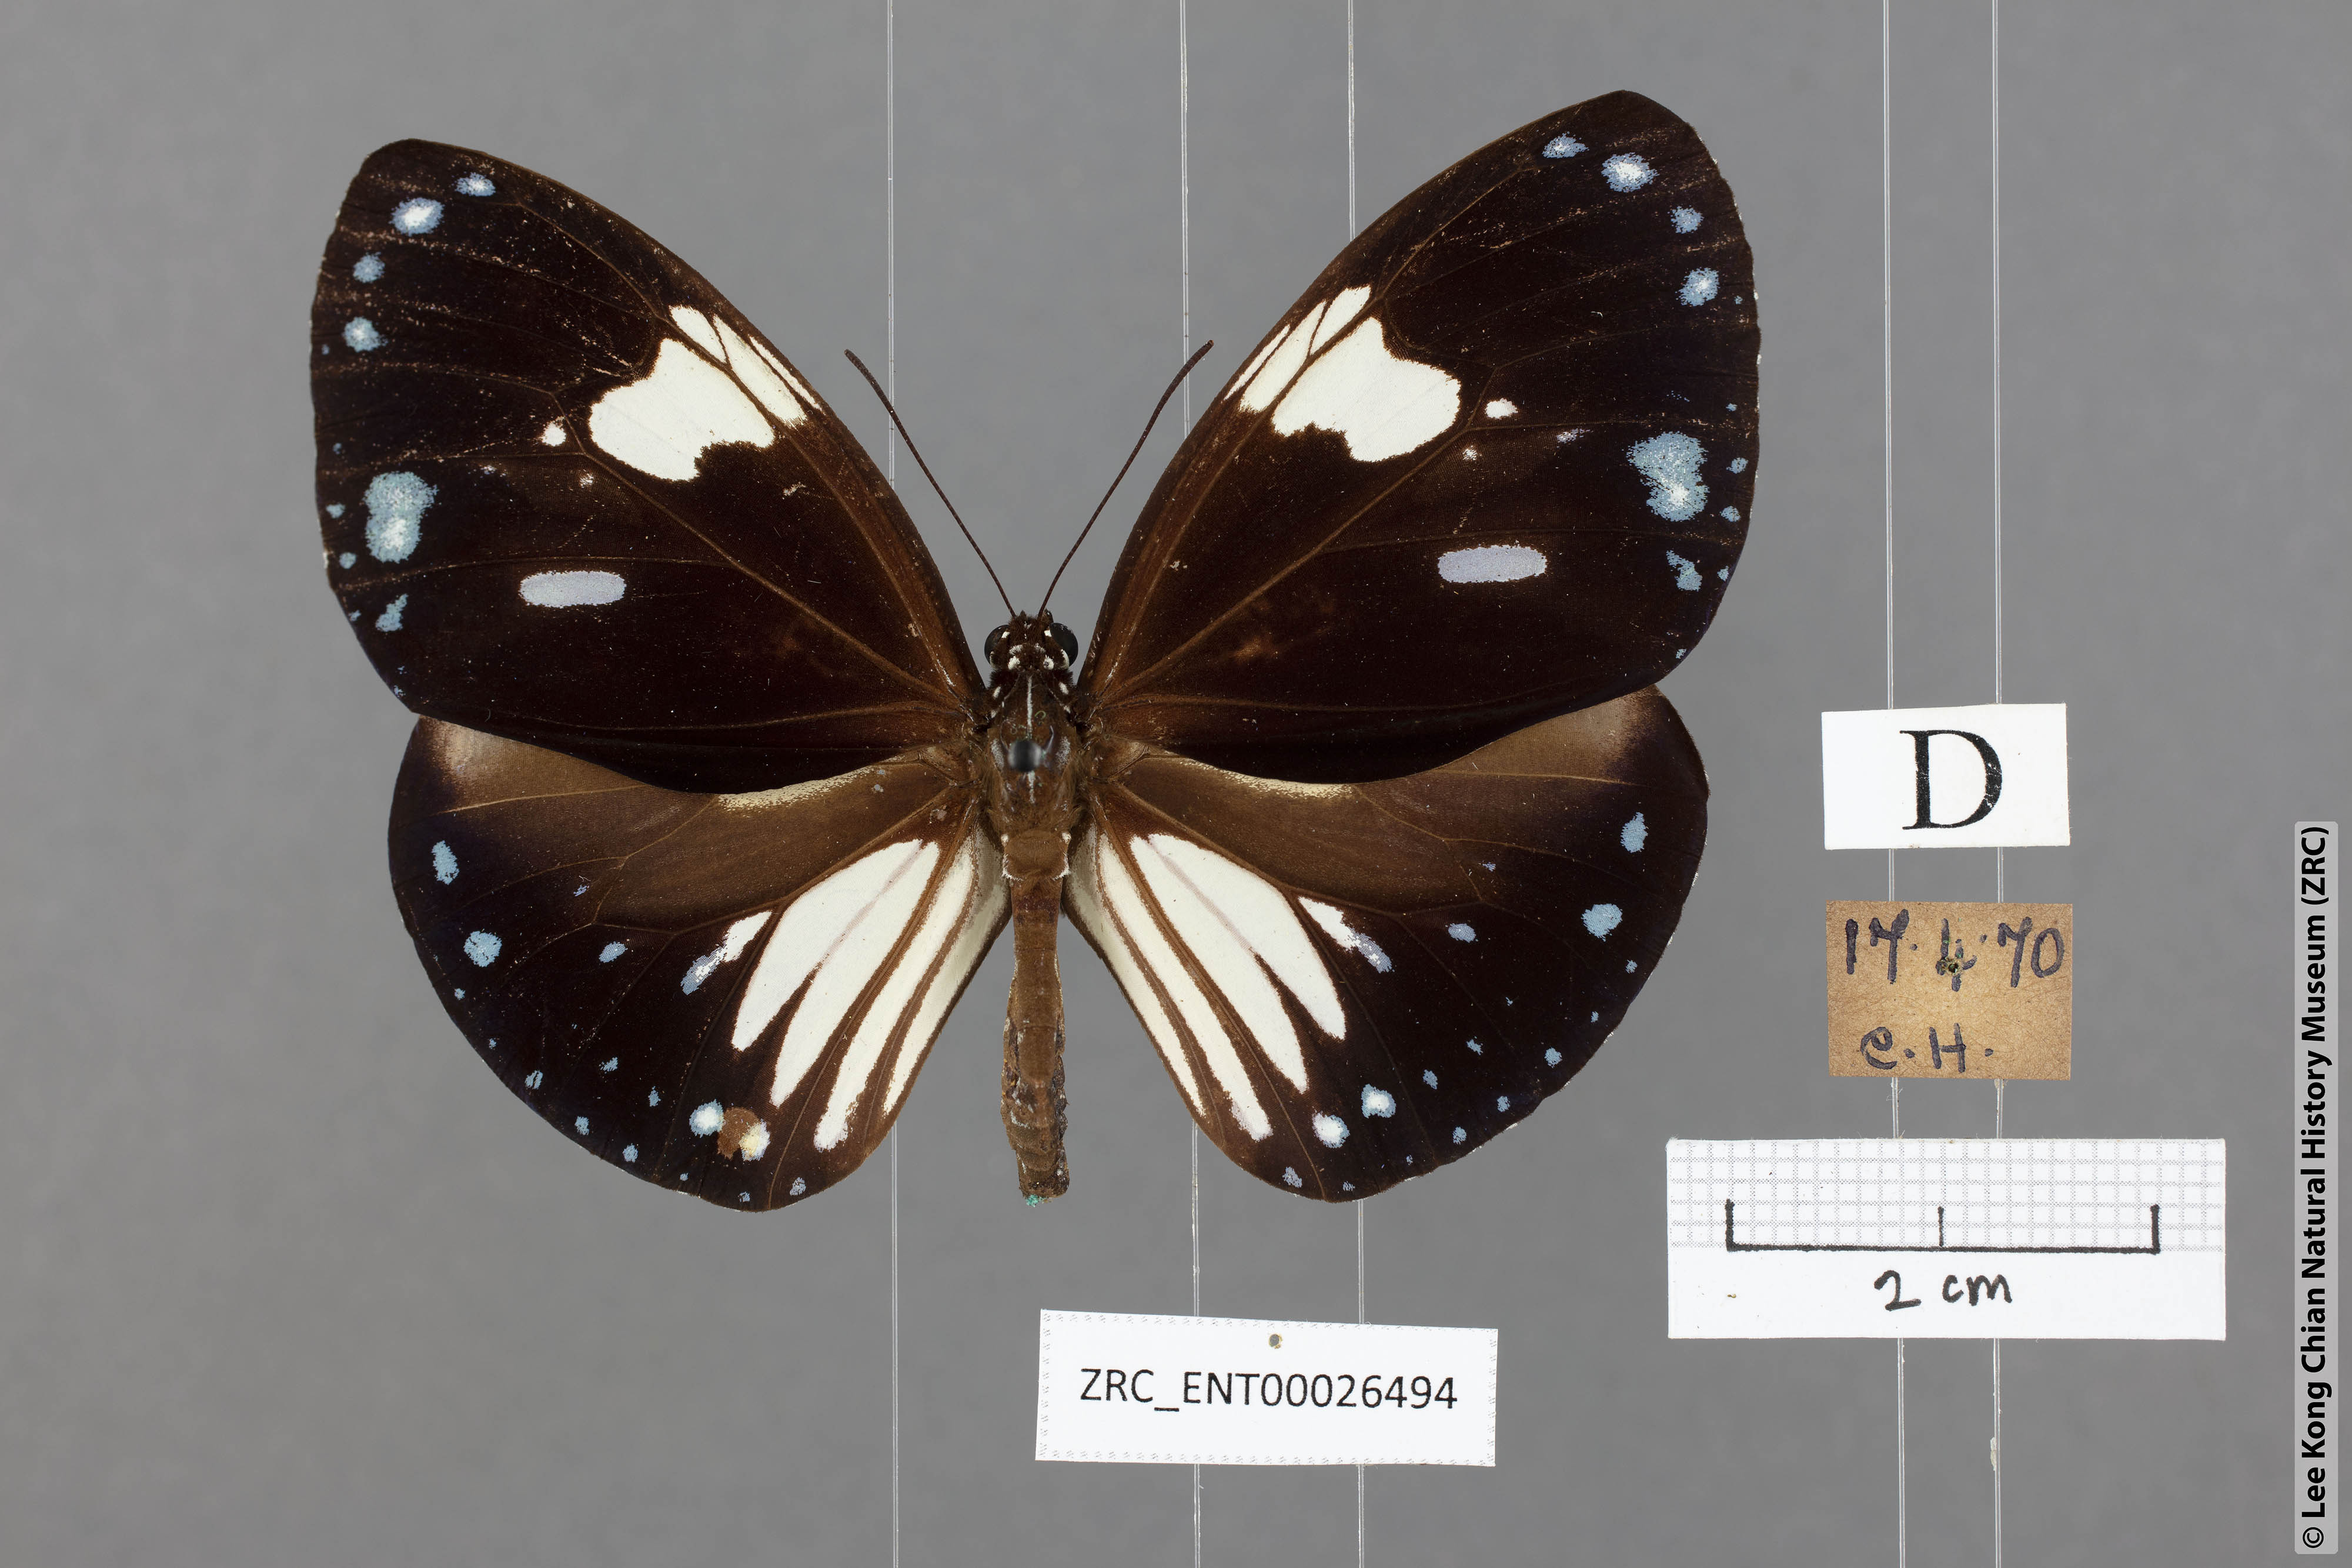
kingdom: Animalia
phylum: Arthropoda
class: Insecta
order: Lepidoptera
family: Nymphalidae
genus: Euploea
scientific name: Euploea radamanthus
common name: Magpie crow butterfly
